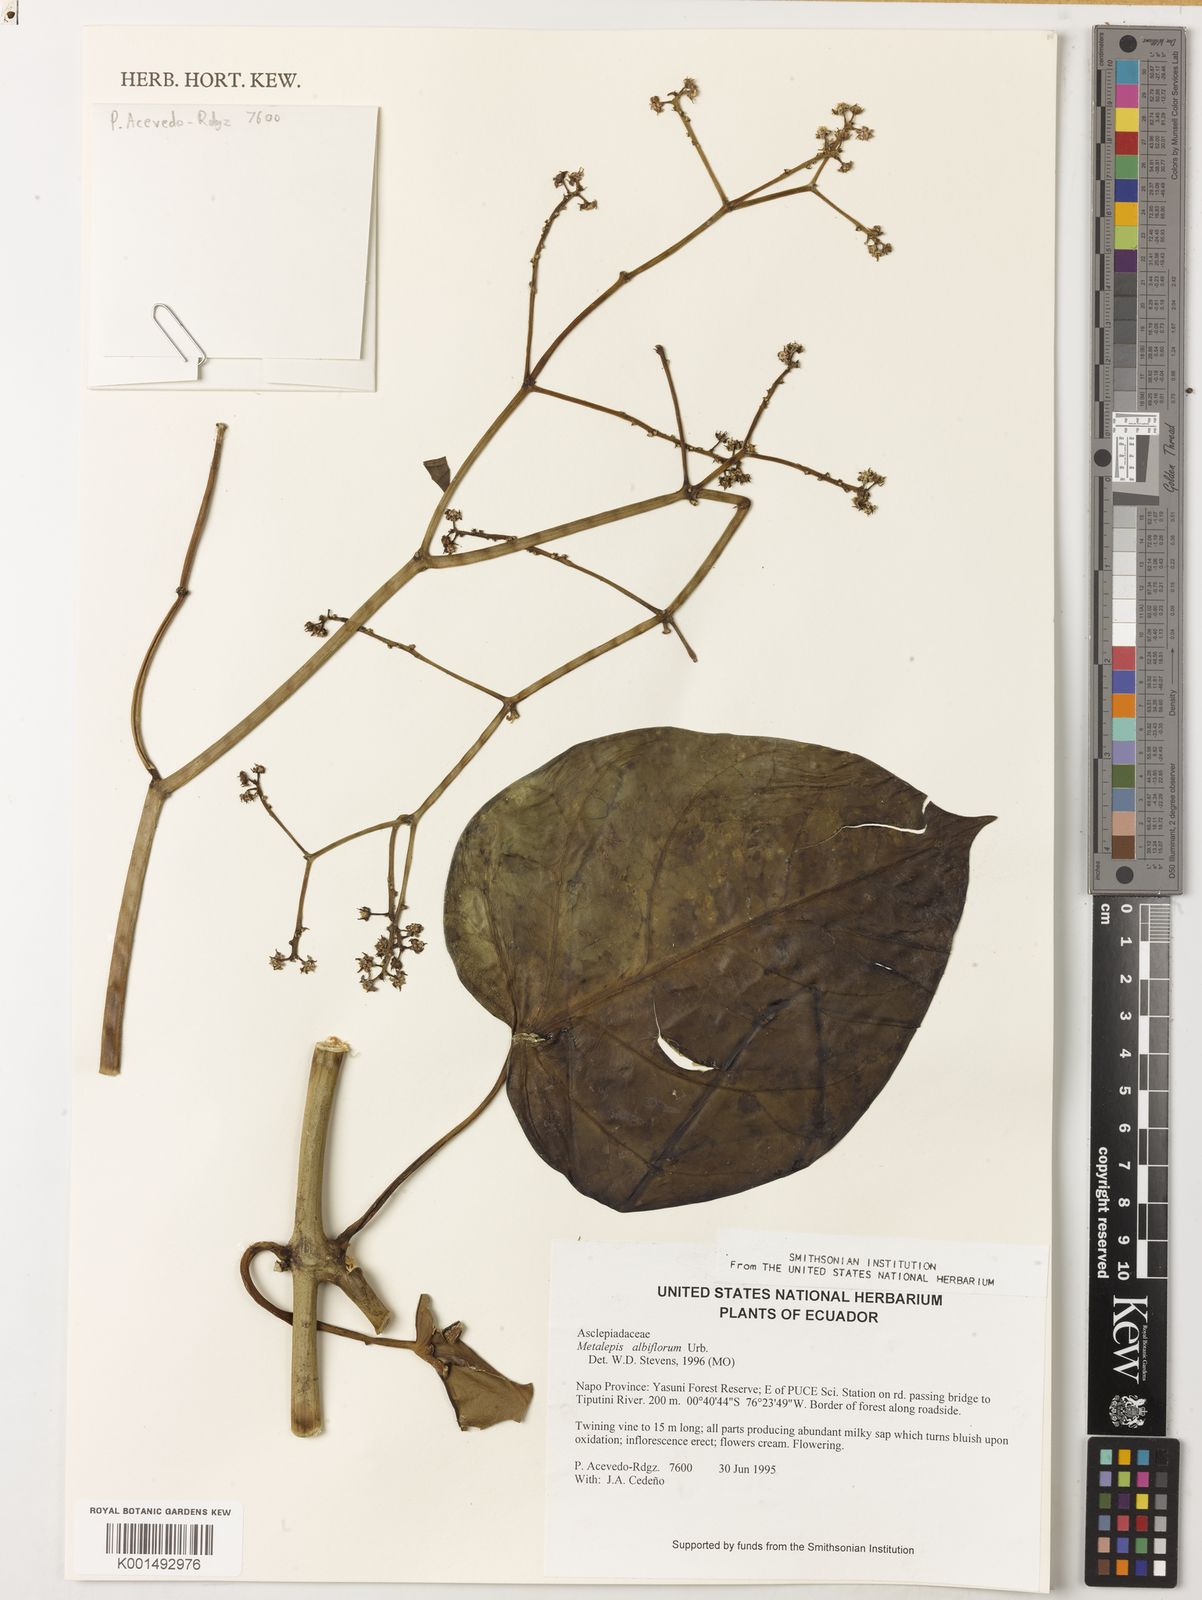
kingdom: Plantae
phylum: Tracheophyta
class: Magnoliopsida
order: Gentianales
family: Apocynaceae
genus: Cynanchum
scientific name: Cynanchum subpaniculatum
